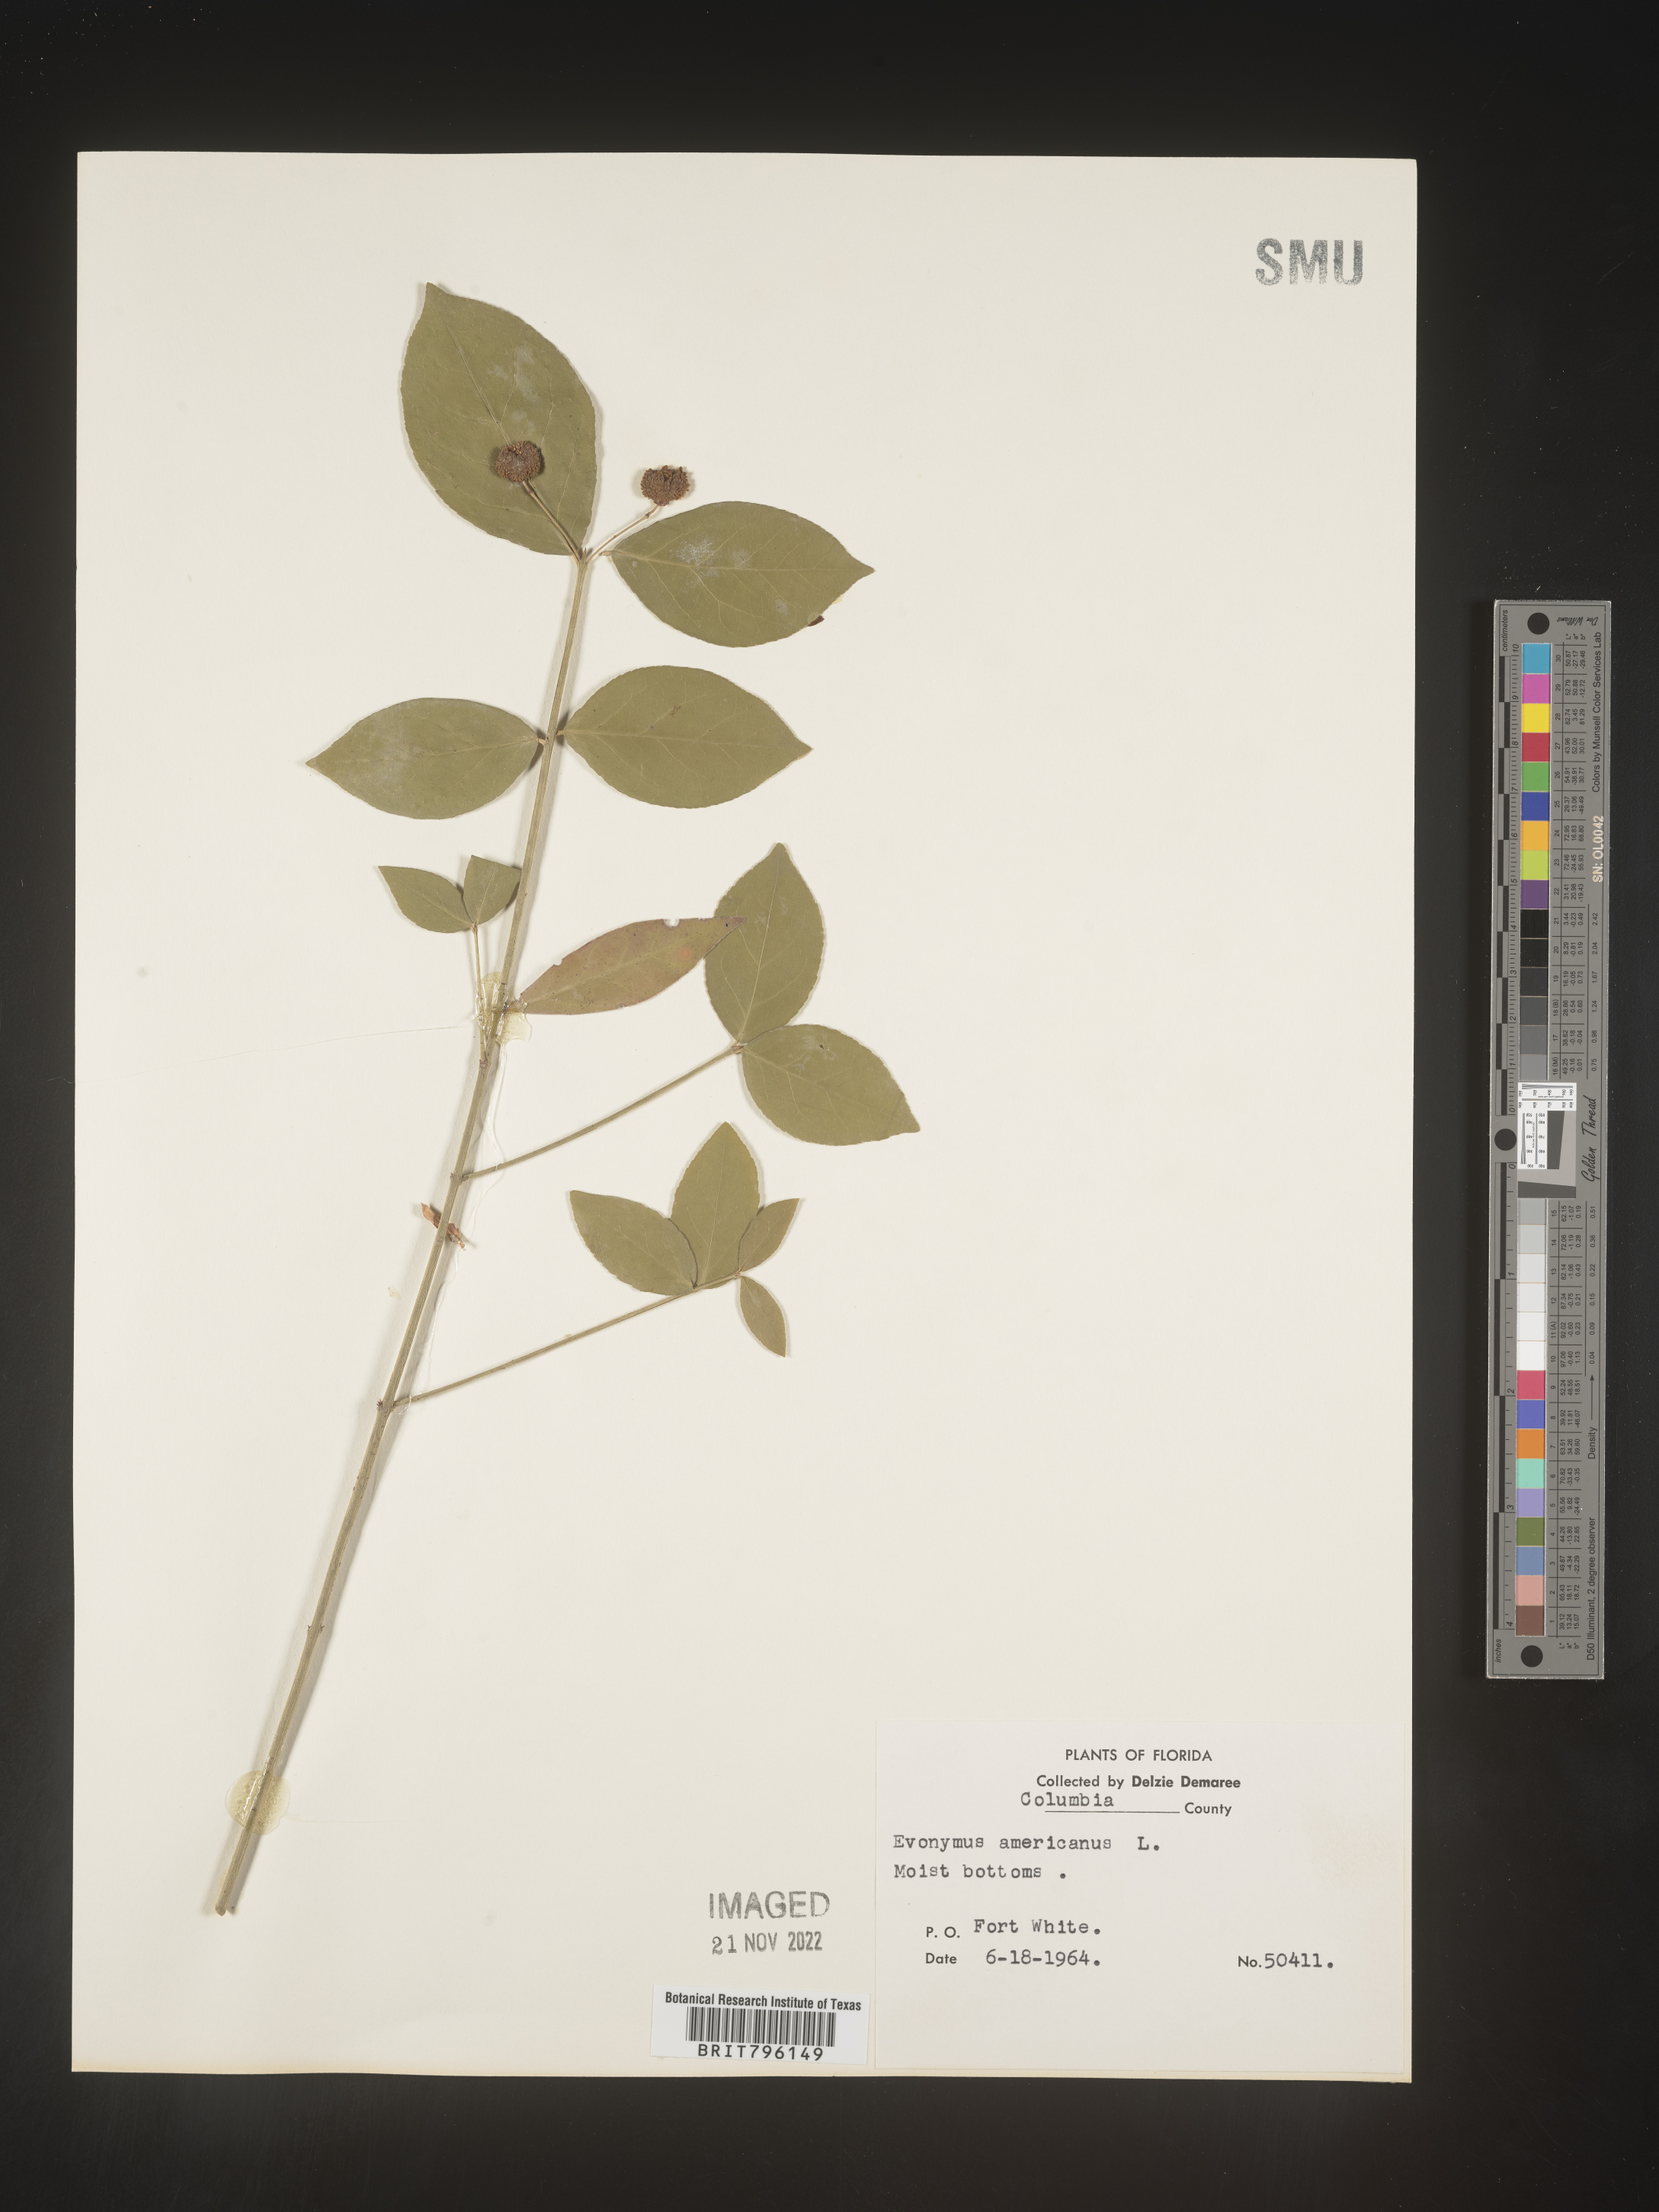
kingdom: Plantae
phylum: Tracheophyta
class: Magnoliopsida
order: Celastrales
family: Celastraceae
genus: Euonymus
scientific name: Euonymus americanus
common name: Bursting-heart
